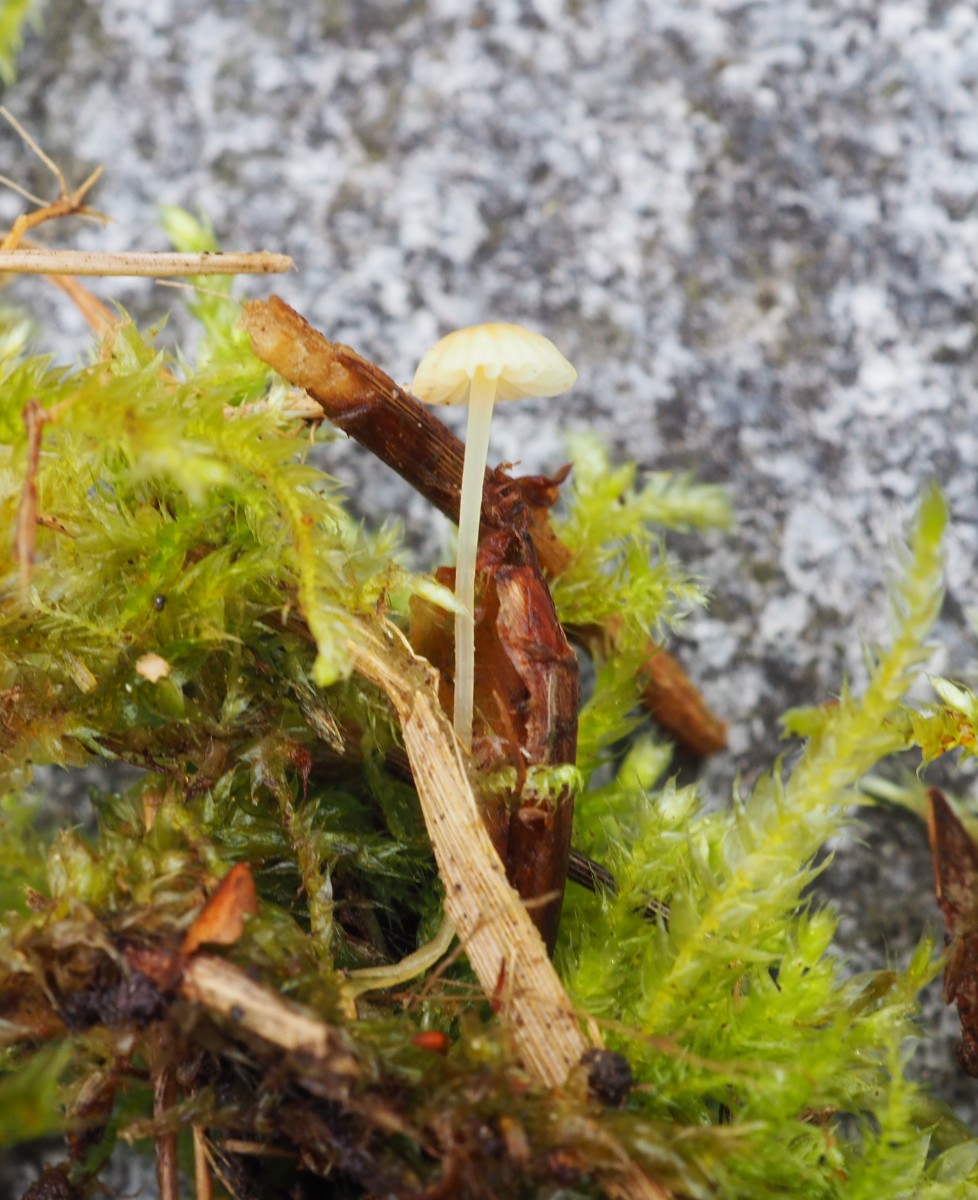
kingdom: Fungi
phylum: Basidiomycota
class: Agaricomycetes
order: Agaricales
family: Mycenaceae
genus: Mycena
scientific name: Mycena acicula
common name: orange huesvamp
